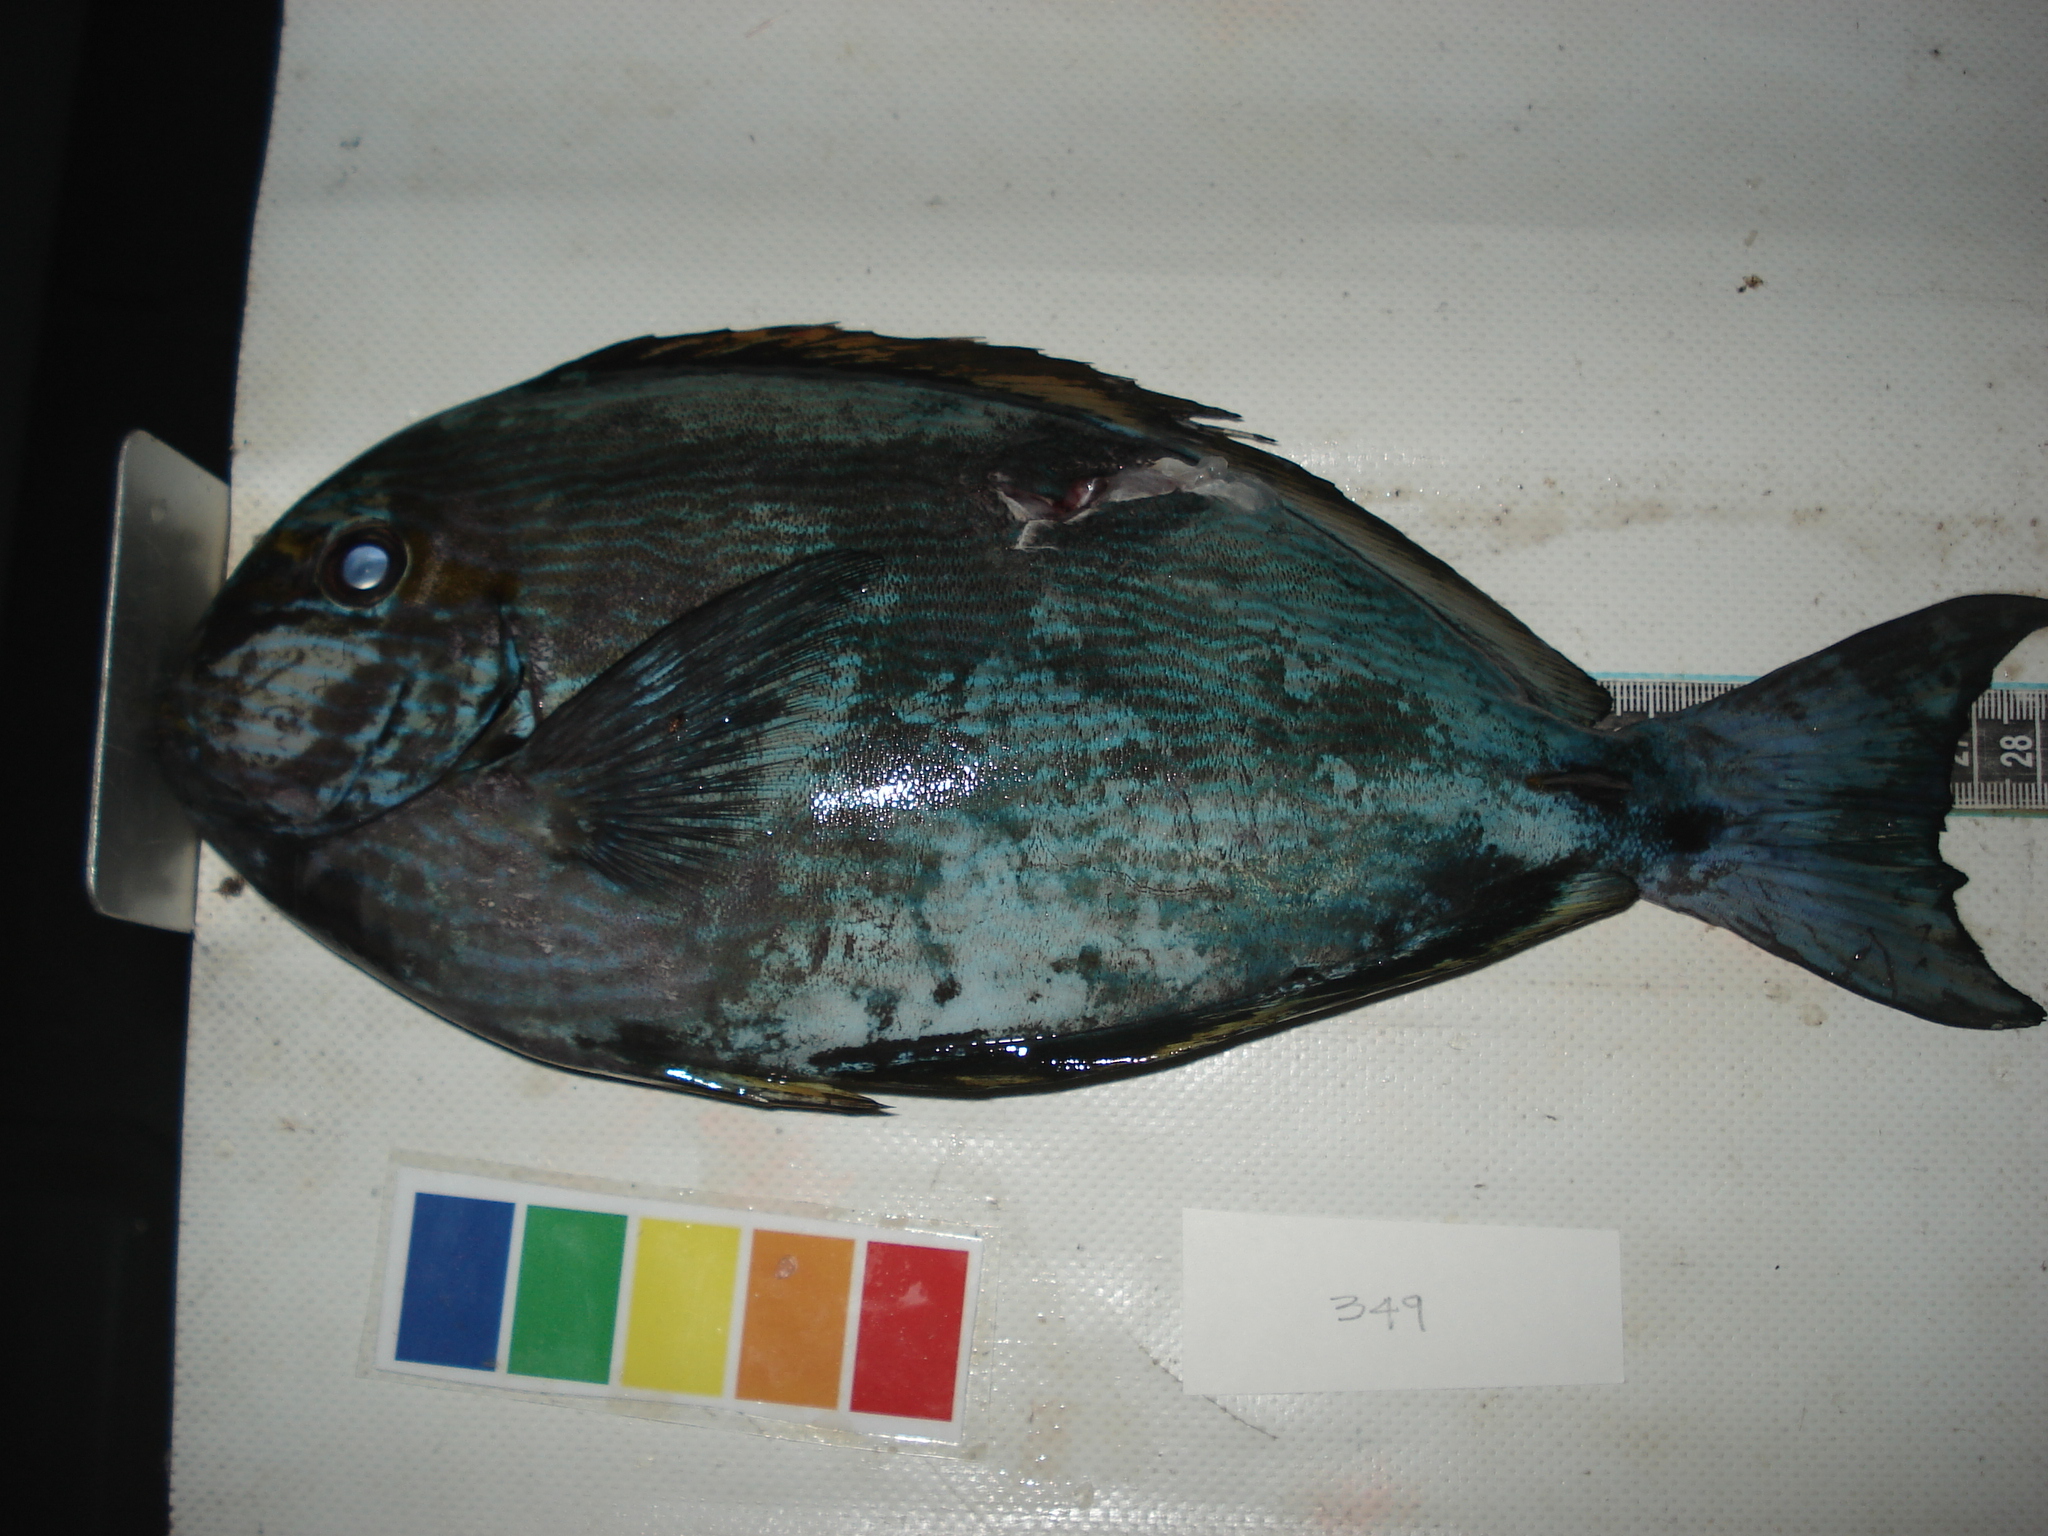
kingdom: Animalia
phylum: Chordata
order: Perciformes
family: Acanthuridae
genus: Acanthurus
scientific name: Acanthurus mata
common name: Bleeker's surgeonfish
